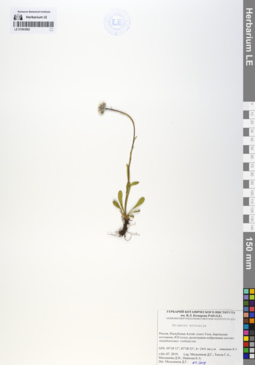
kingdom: Plantae
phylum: Tracheophyta
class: Magnoliopsida
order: Asterales
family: Asteraceae
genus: Erigeron
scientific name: Erigeron eriocalyx
